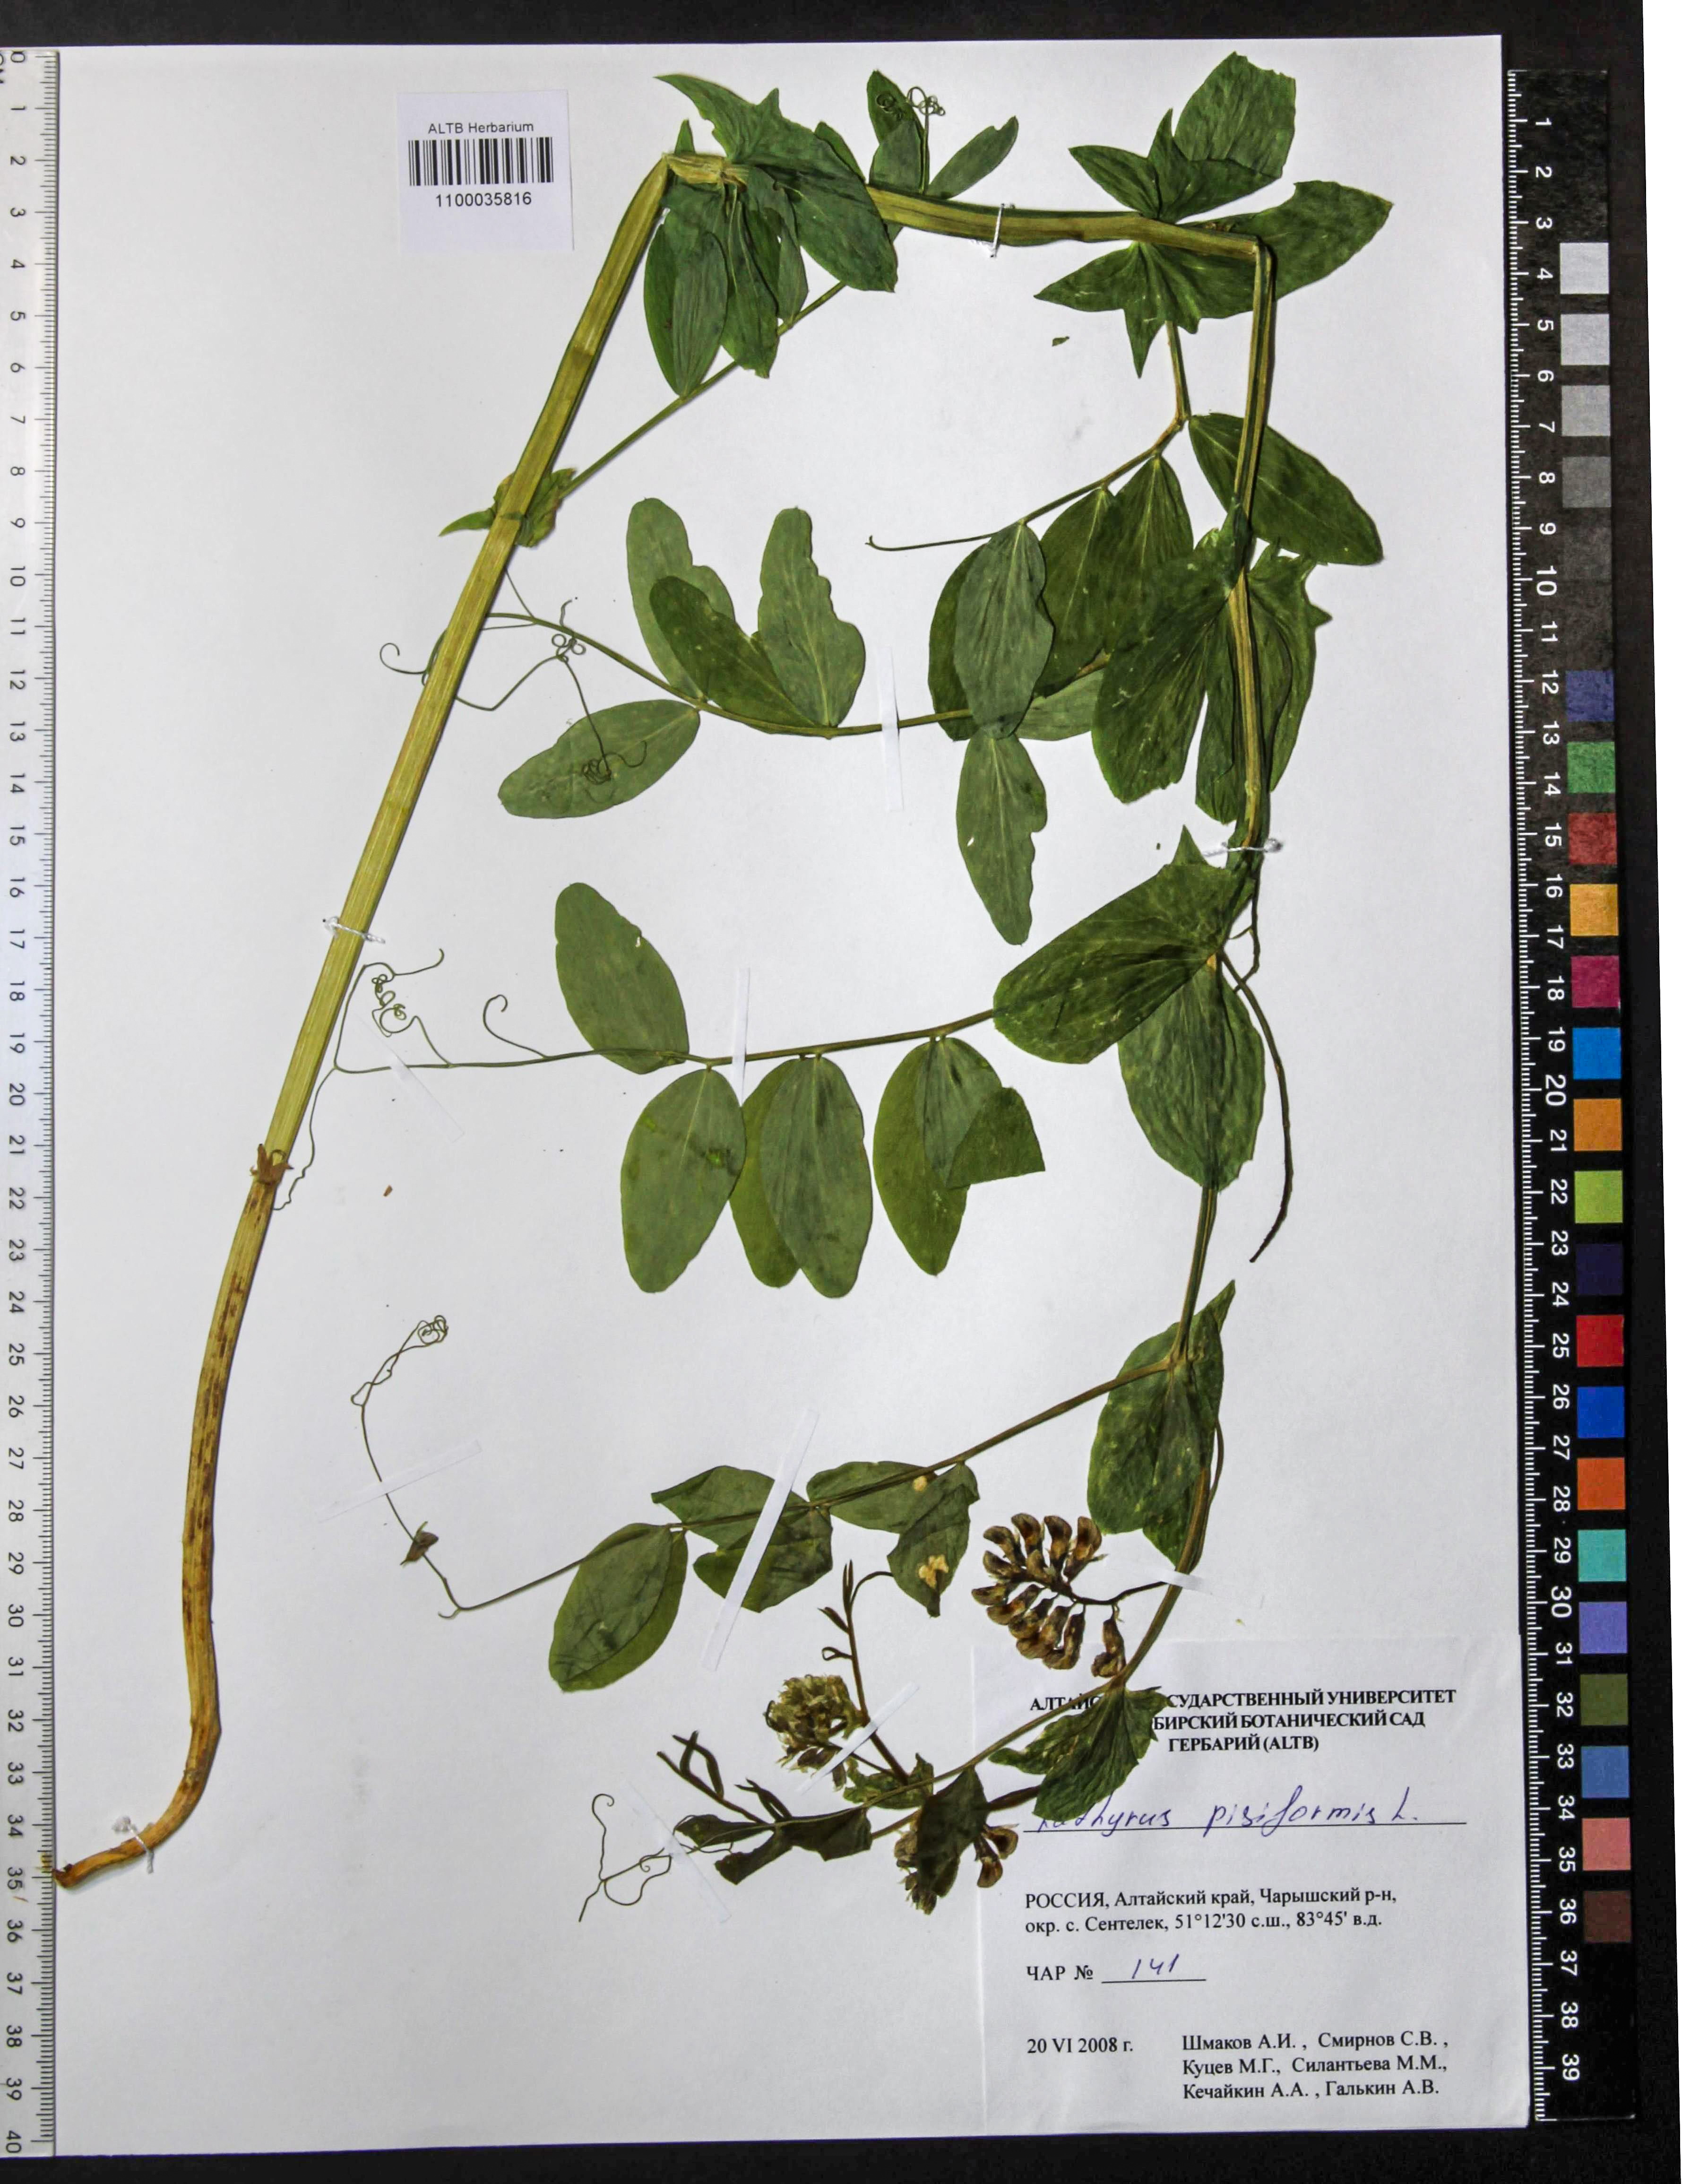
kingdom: Plantae
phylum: Tracheophyta
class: Magnoliopsida
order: Fabales
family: Fabaceae
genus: Lathyrus
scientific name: Lathyrus pisiformis
